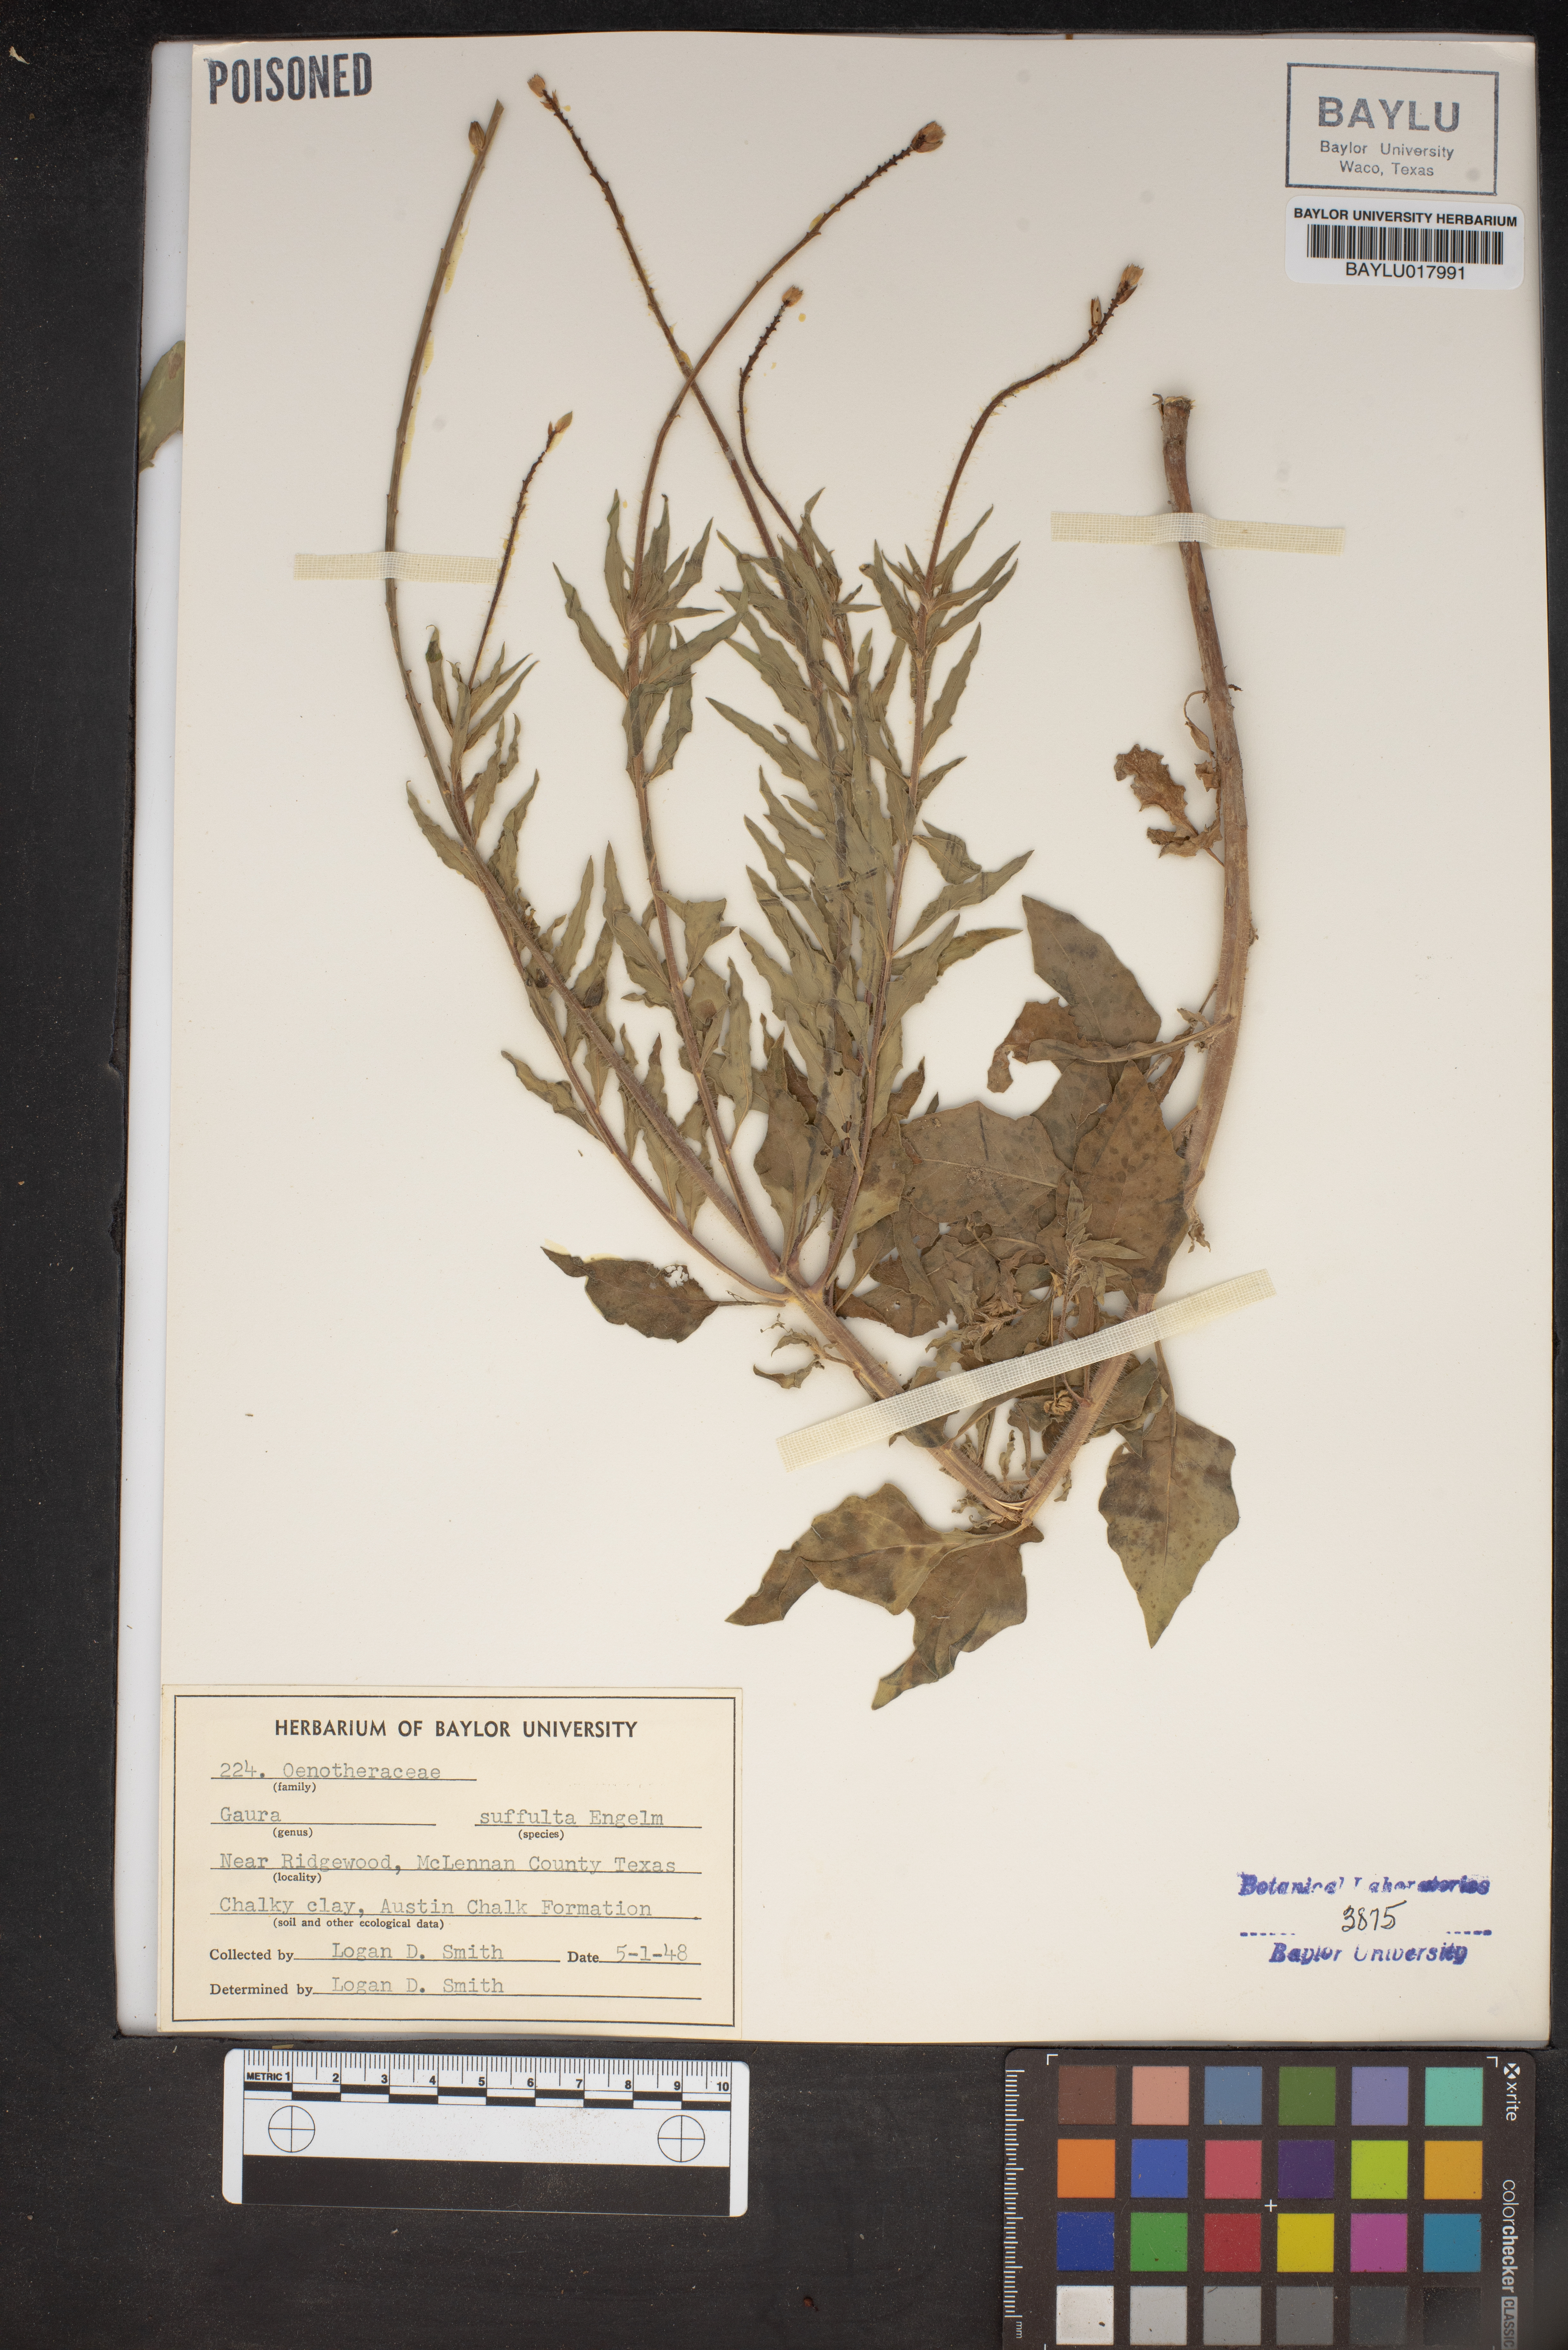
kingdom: Plantae
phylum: Tracheophyta
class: Magnoliopsida
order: Myrtales
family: Onagraceae
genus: Oenothera
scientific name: Oenothera Gaura suffulta
